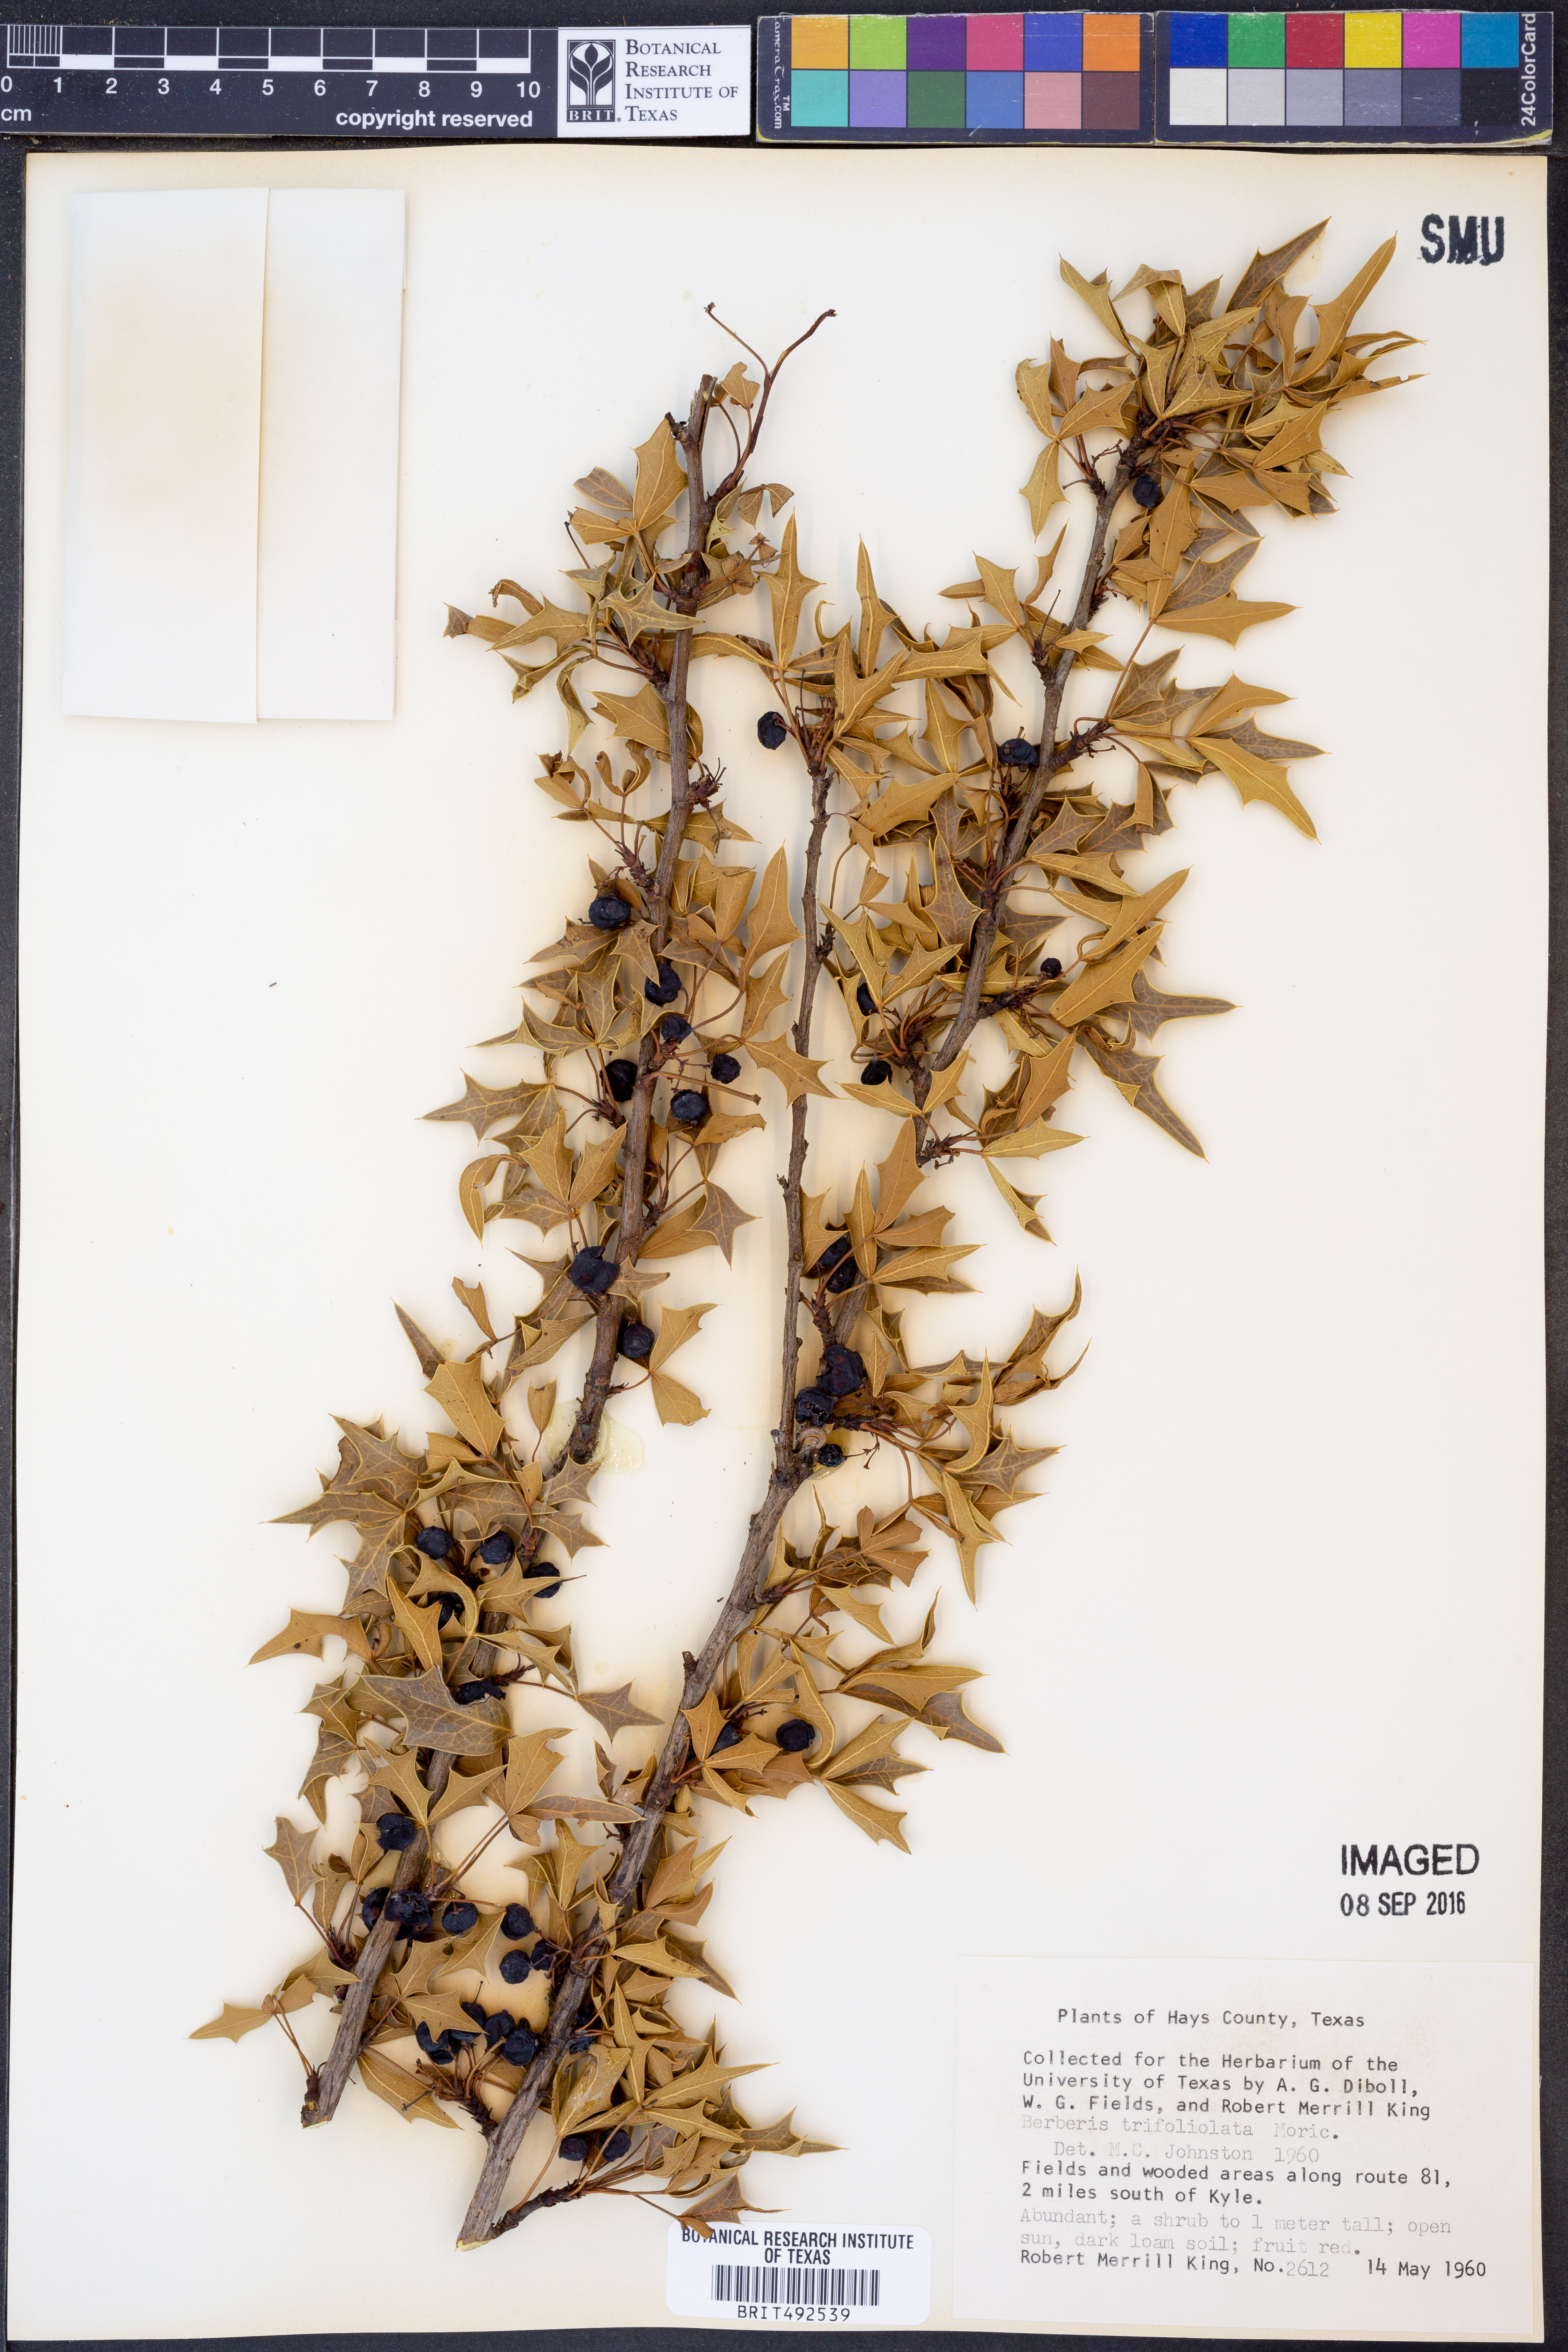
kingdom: Plantae
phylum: Tracheophyta
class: Magnoliopsida
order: Ranunculales
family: Berberidaceae
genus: Alloberberis
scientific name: Alloberberis trifoliolata
